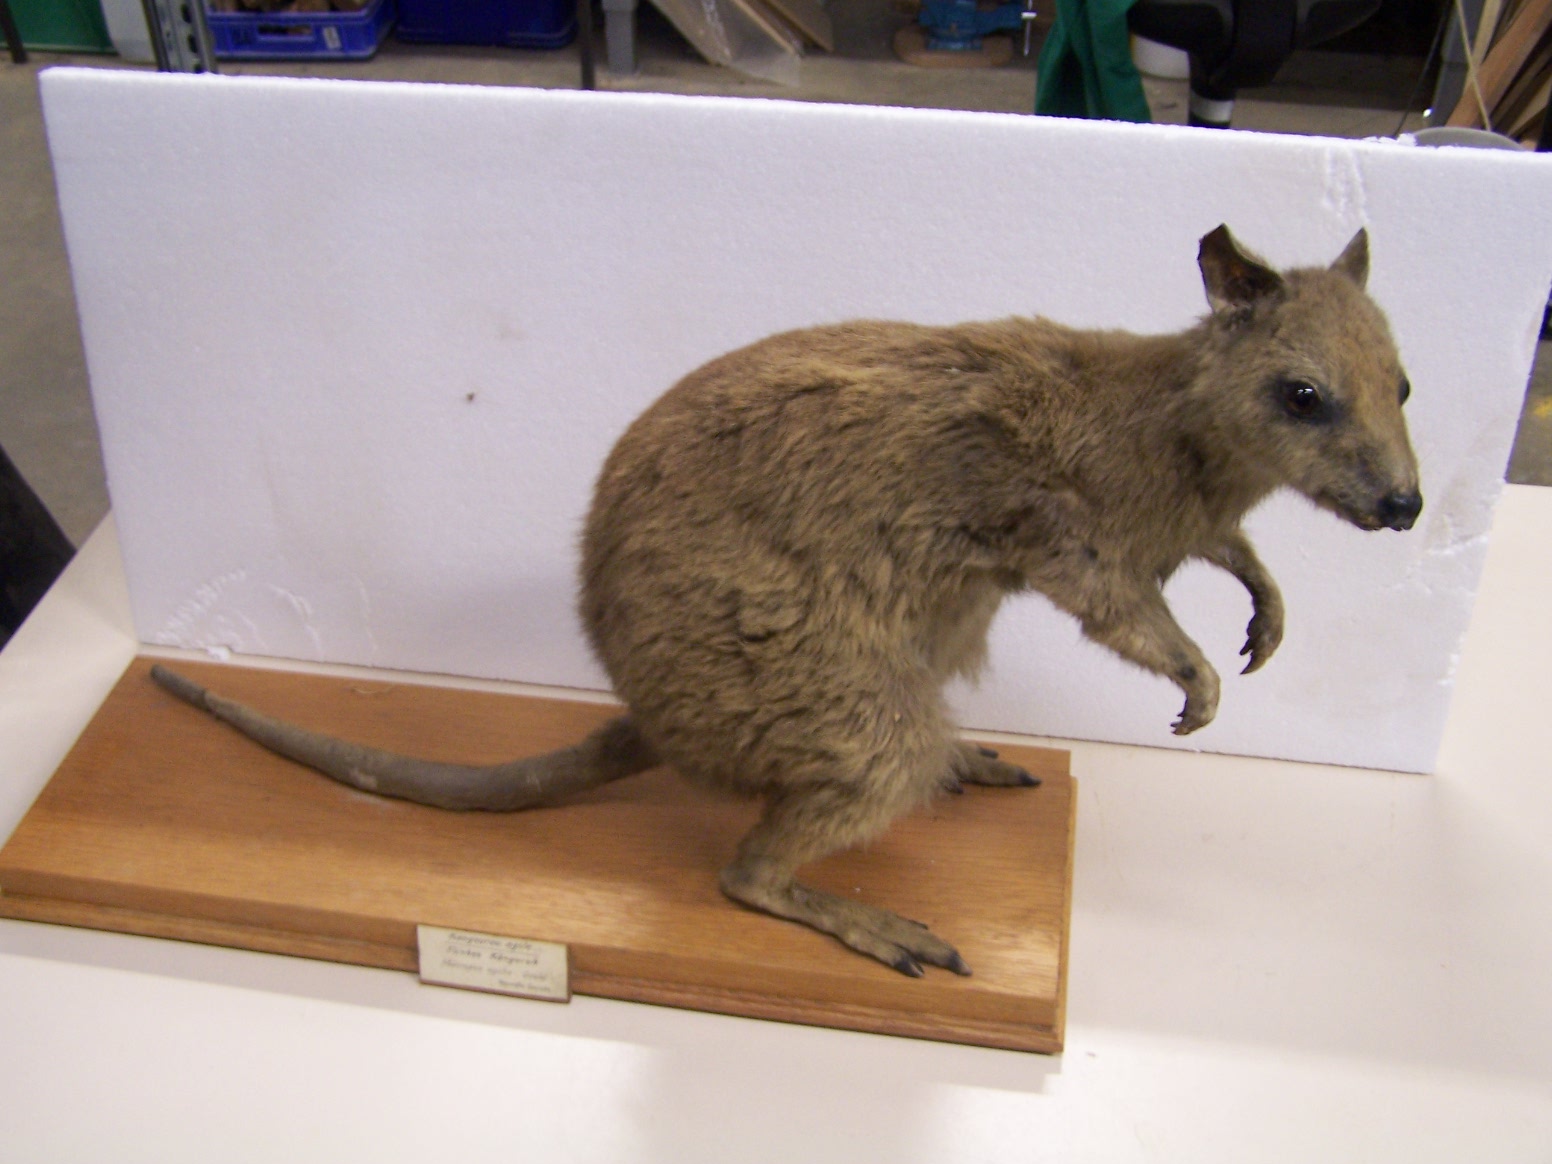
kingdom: Animalia
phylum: Chordata
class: Mammalia
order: Diprotodontia
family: Macropodidae
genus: Macropus
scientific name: Macropus agilis
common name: Agile wallaby
